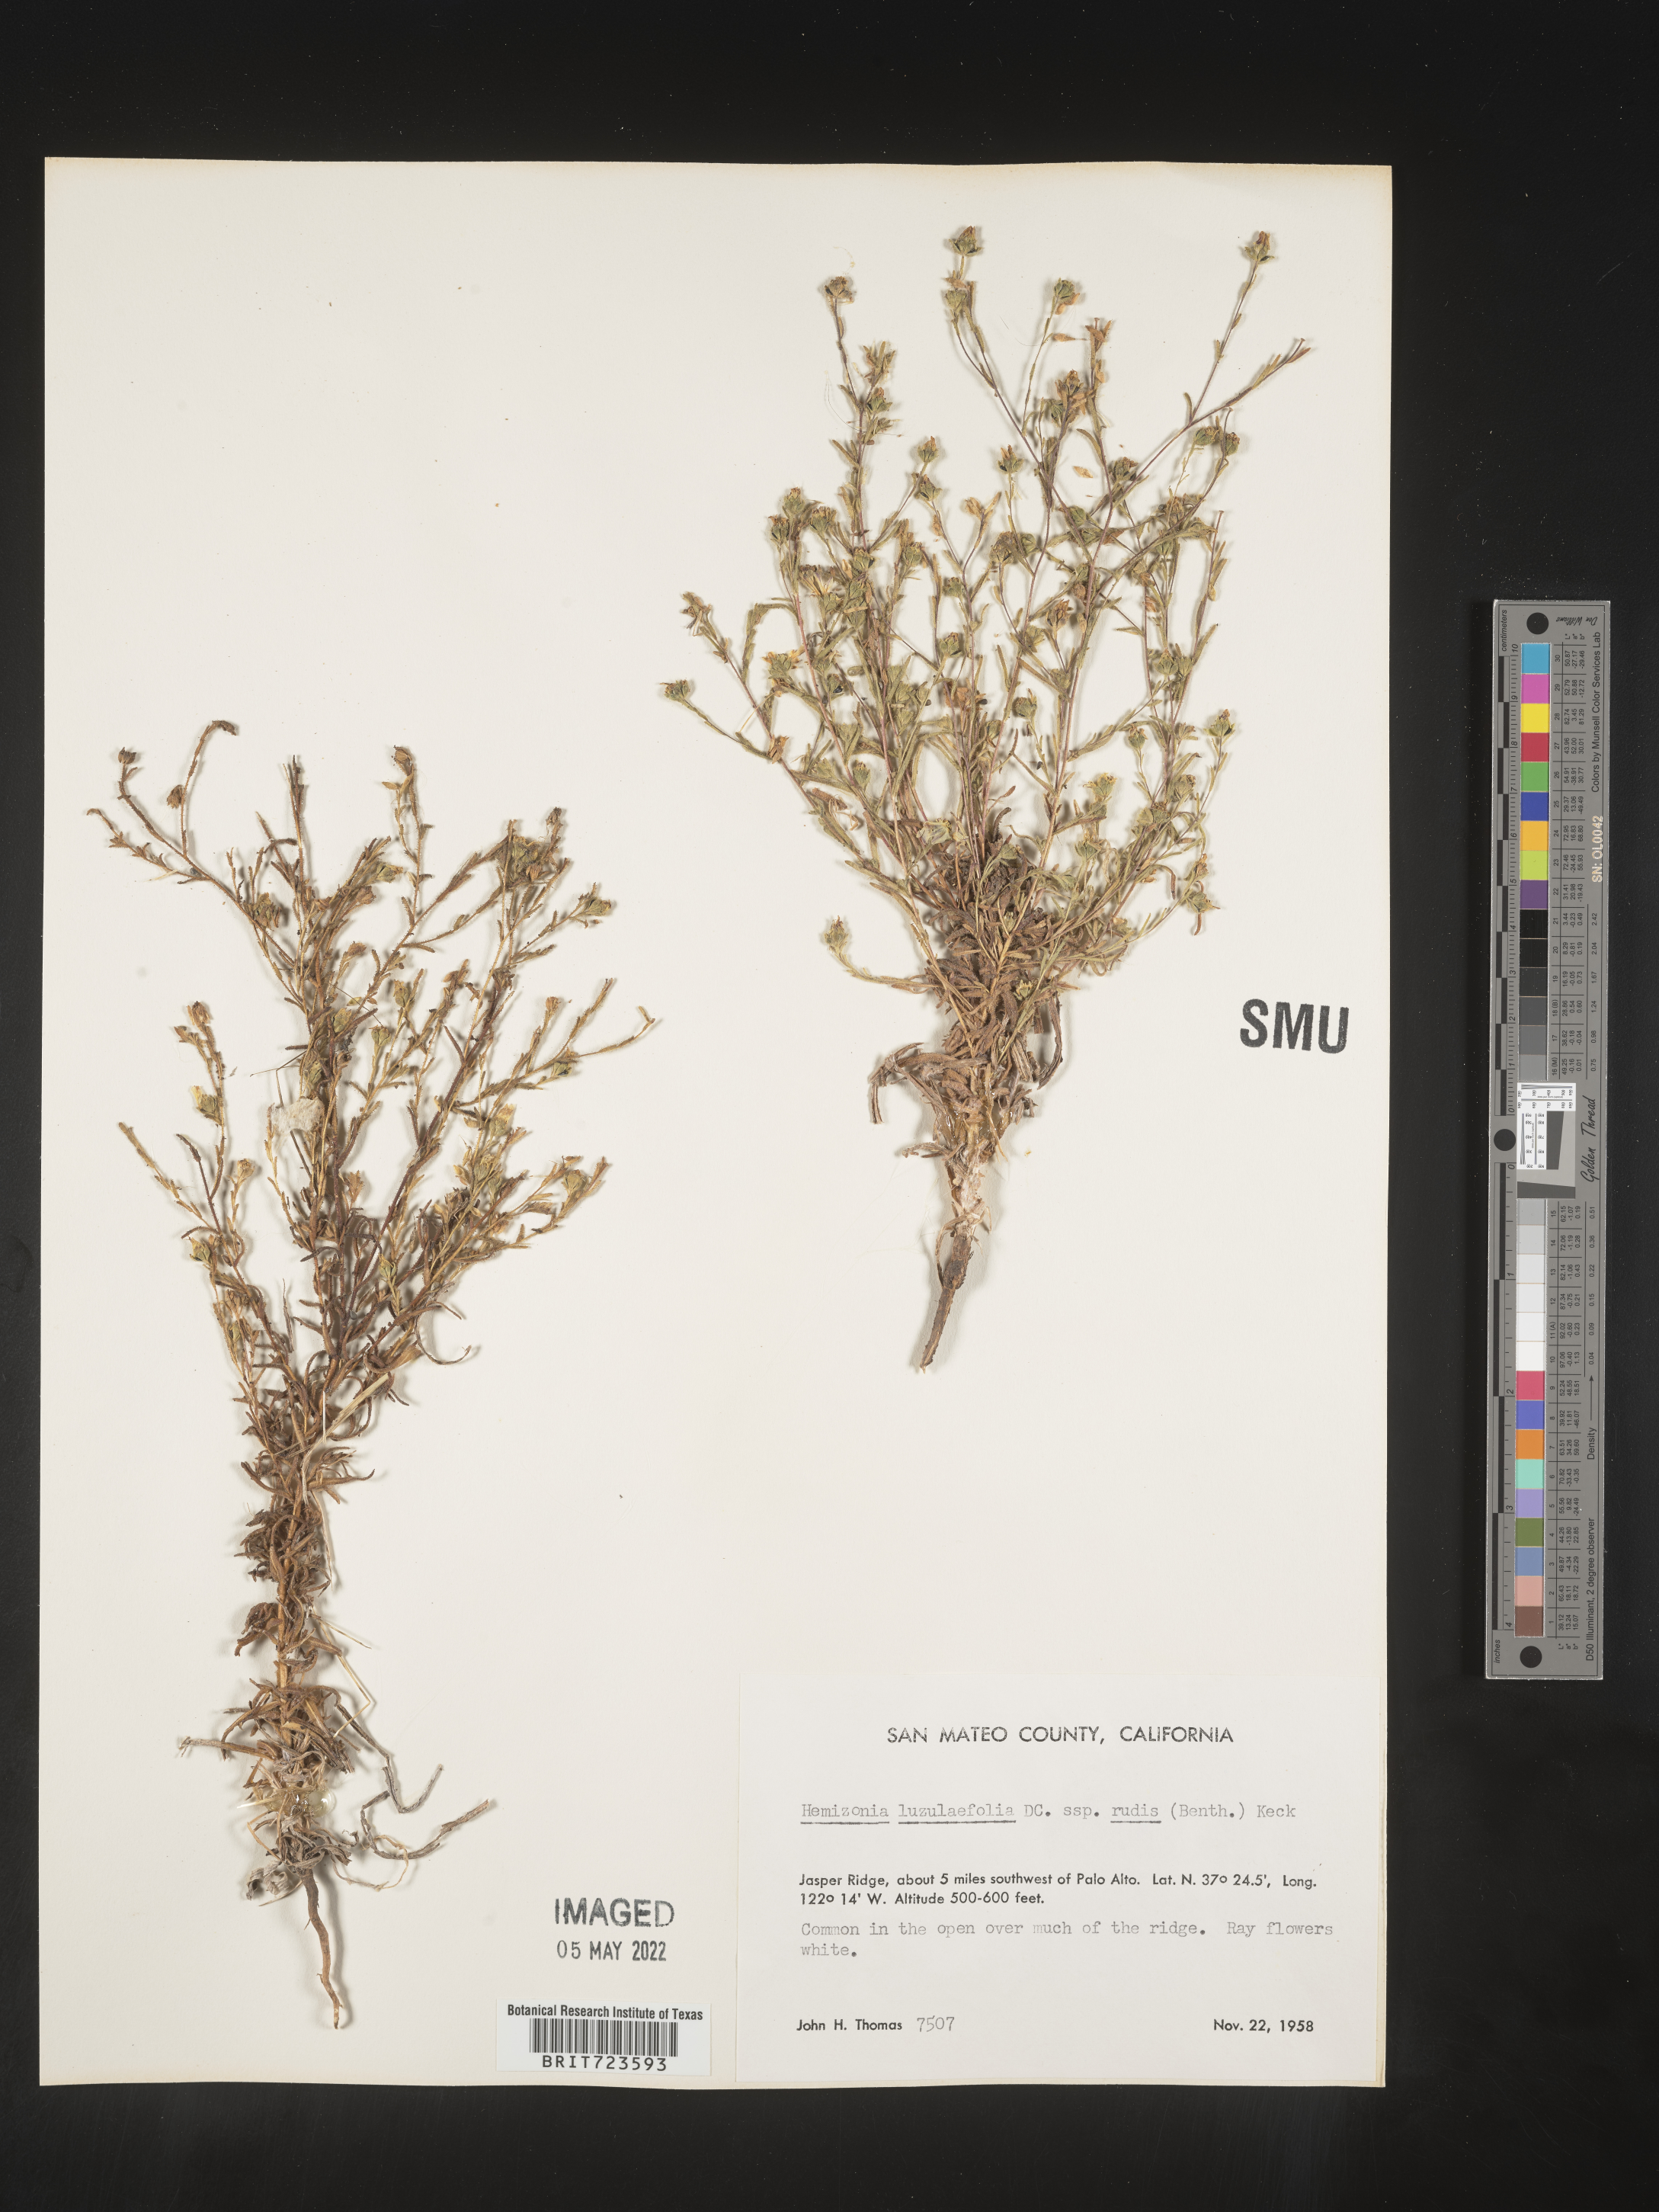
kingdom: Plantae
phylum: Tracheophyta
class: Magnoliopsida
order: Asterales
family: Asteraceae
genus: Hemizonia
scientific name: Hemizonia
